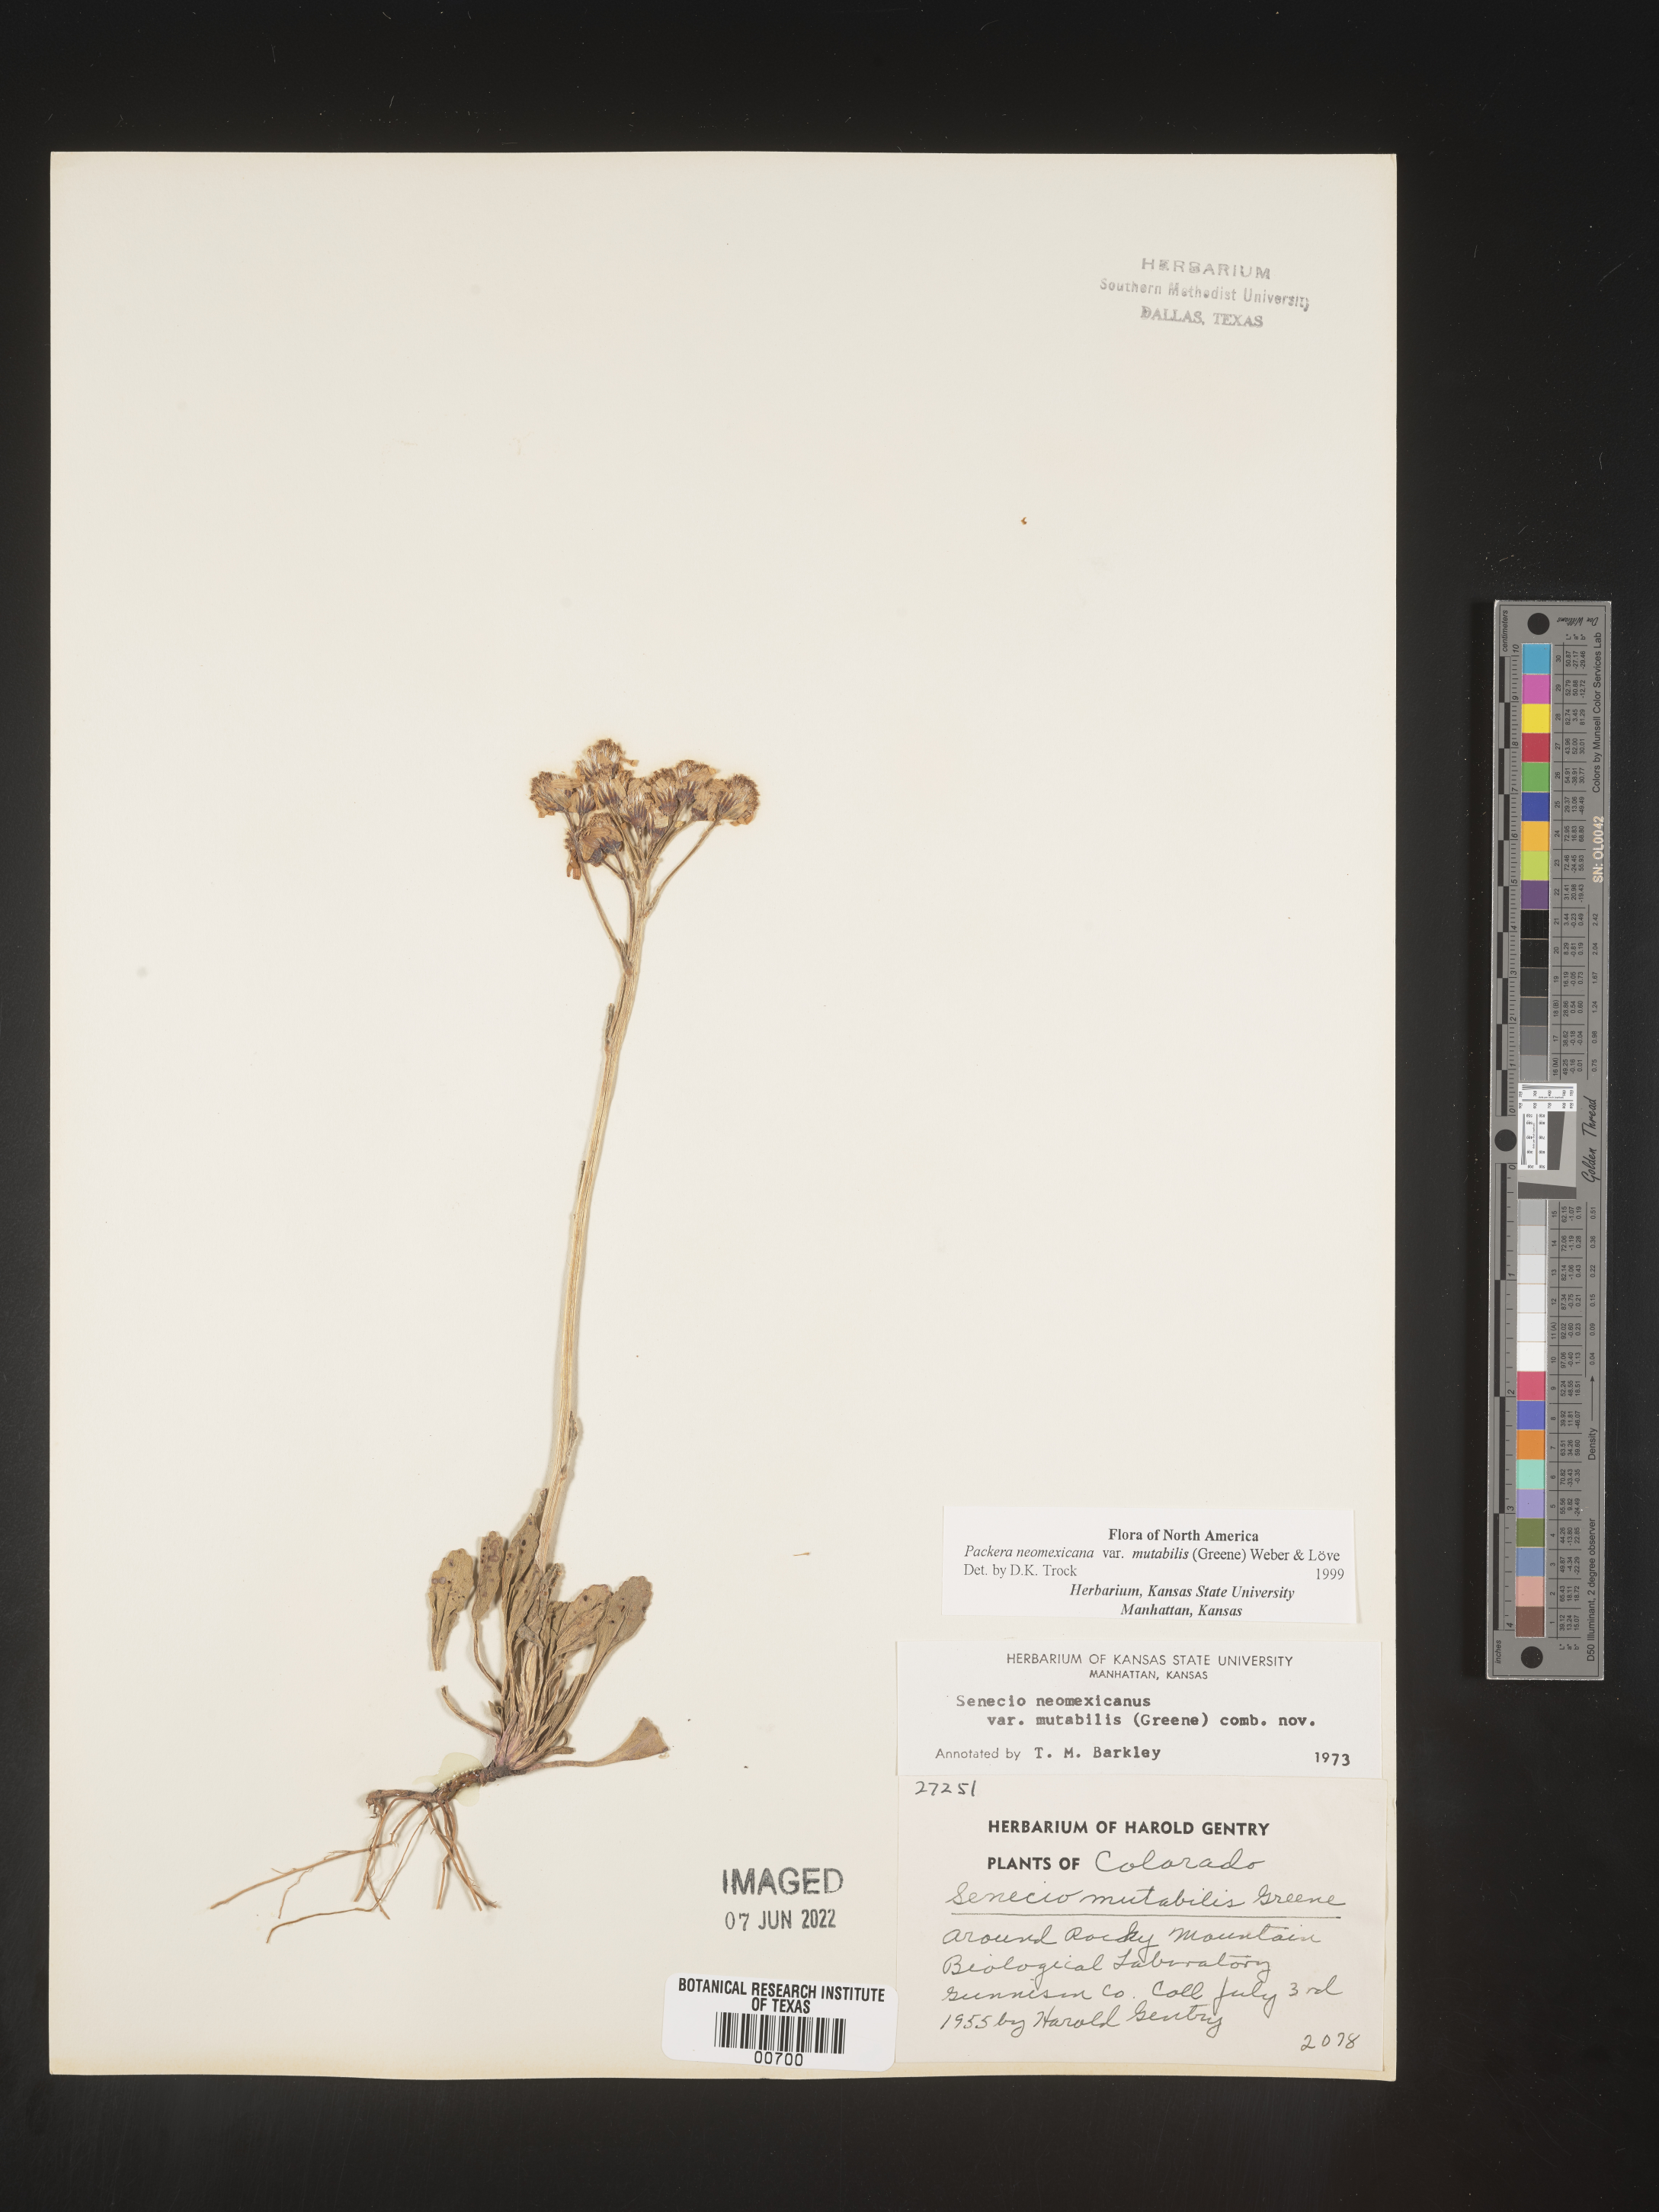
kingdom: Plantae
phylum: Tracheophyta
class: Magnoliopsida
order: Asterales
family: Asteraceae
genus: Packera
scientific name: Packera neomexicana
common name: New mexico butterweed
